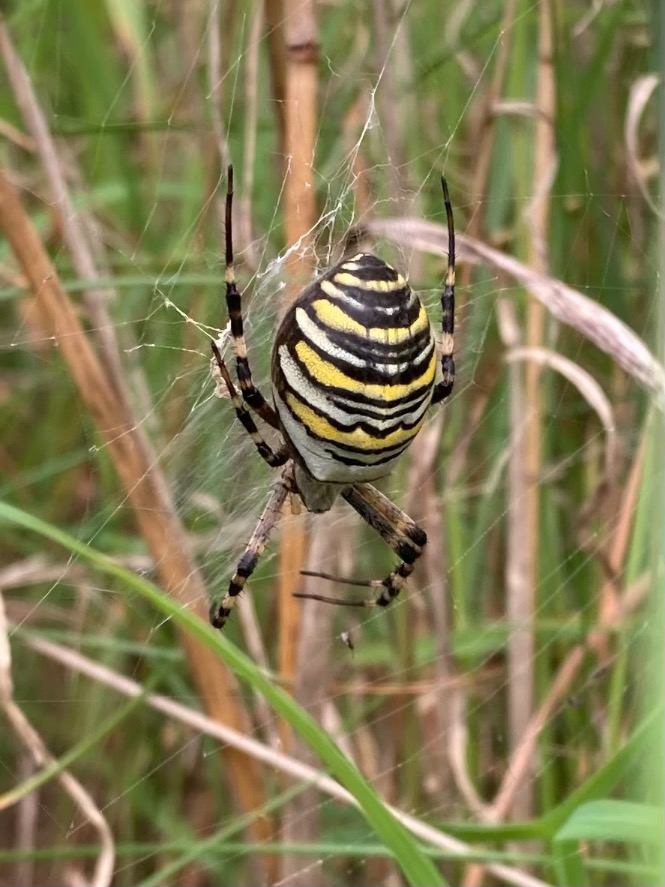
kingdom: Animalia
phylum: Arthropoda
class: Arachnida
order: Araneae
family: Araneidae
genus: Argiope
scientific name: Argiope bruennichi
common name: Hvepseedderkop
